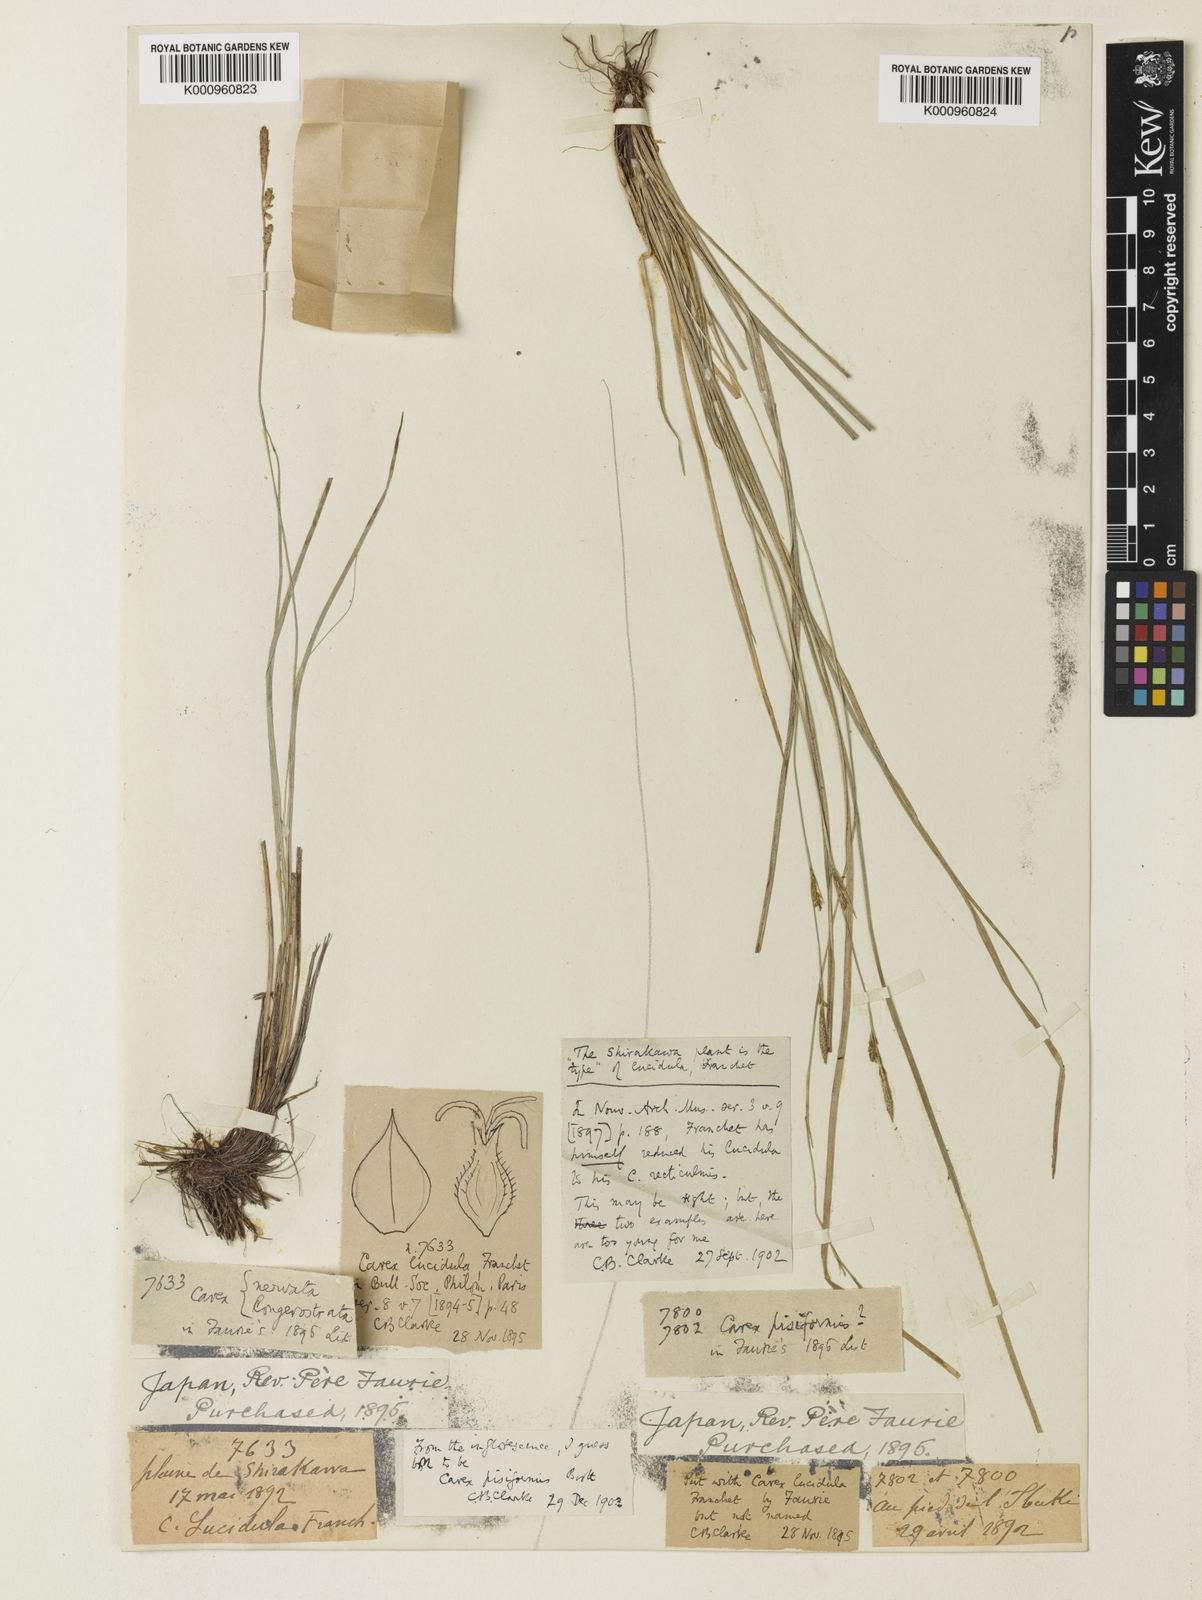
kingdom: Plantae
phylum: Tracheophyta
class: Liliopsida
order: Poales
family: Cyperaceae
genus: Carex
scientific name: Carex umbrosa
